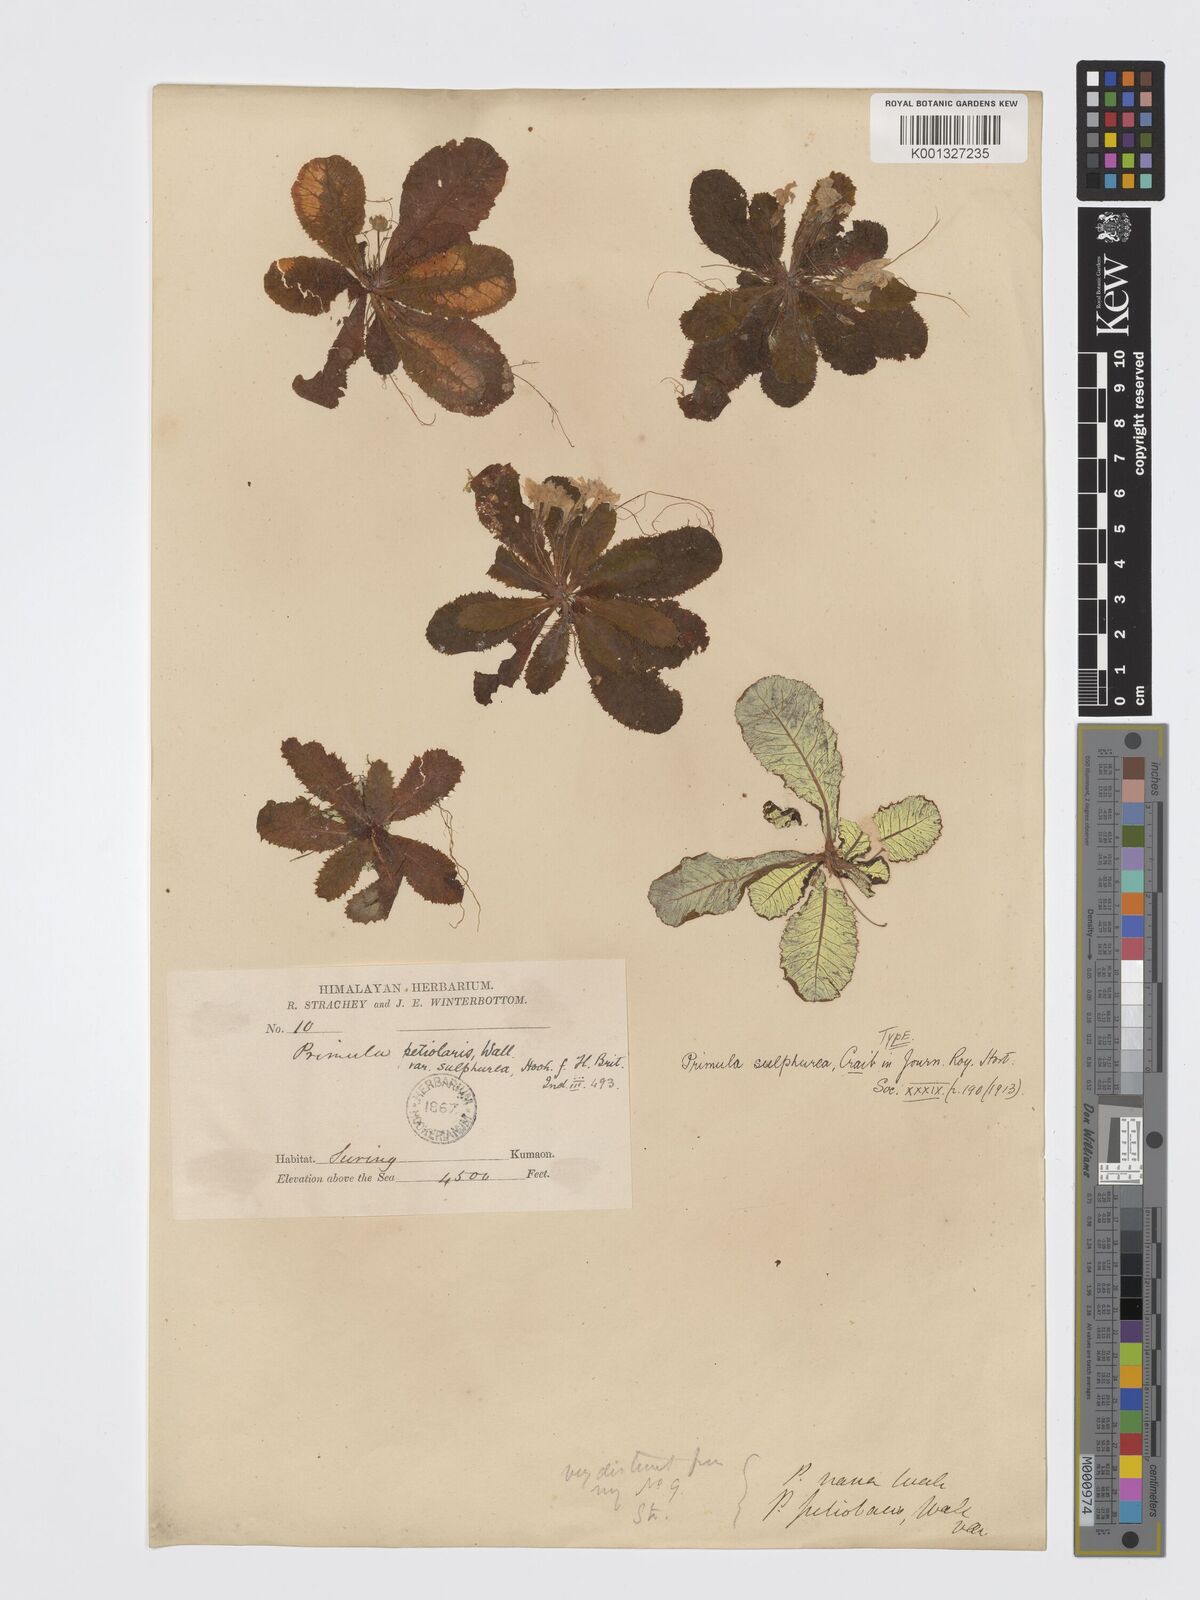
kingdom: Plantae
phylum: Tracheophyta
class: Magnoliopsida
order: Ericales
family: Primulaceae
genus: Primula
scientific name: Primula gracilipes
